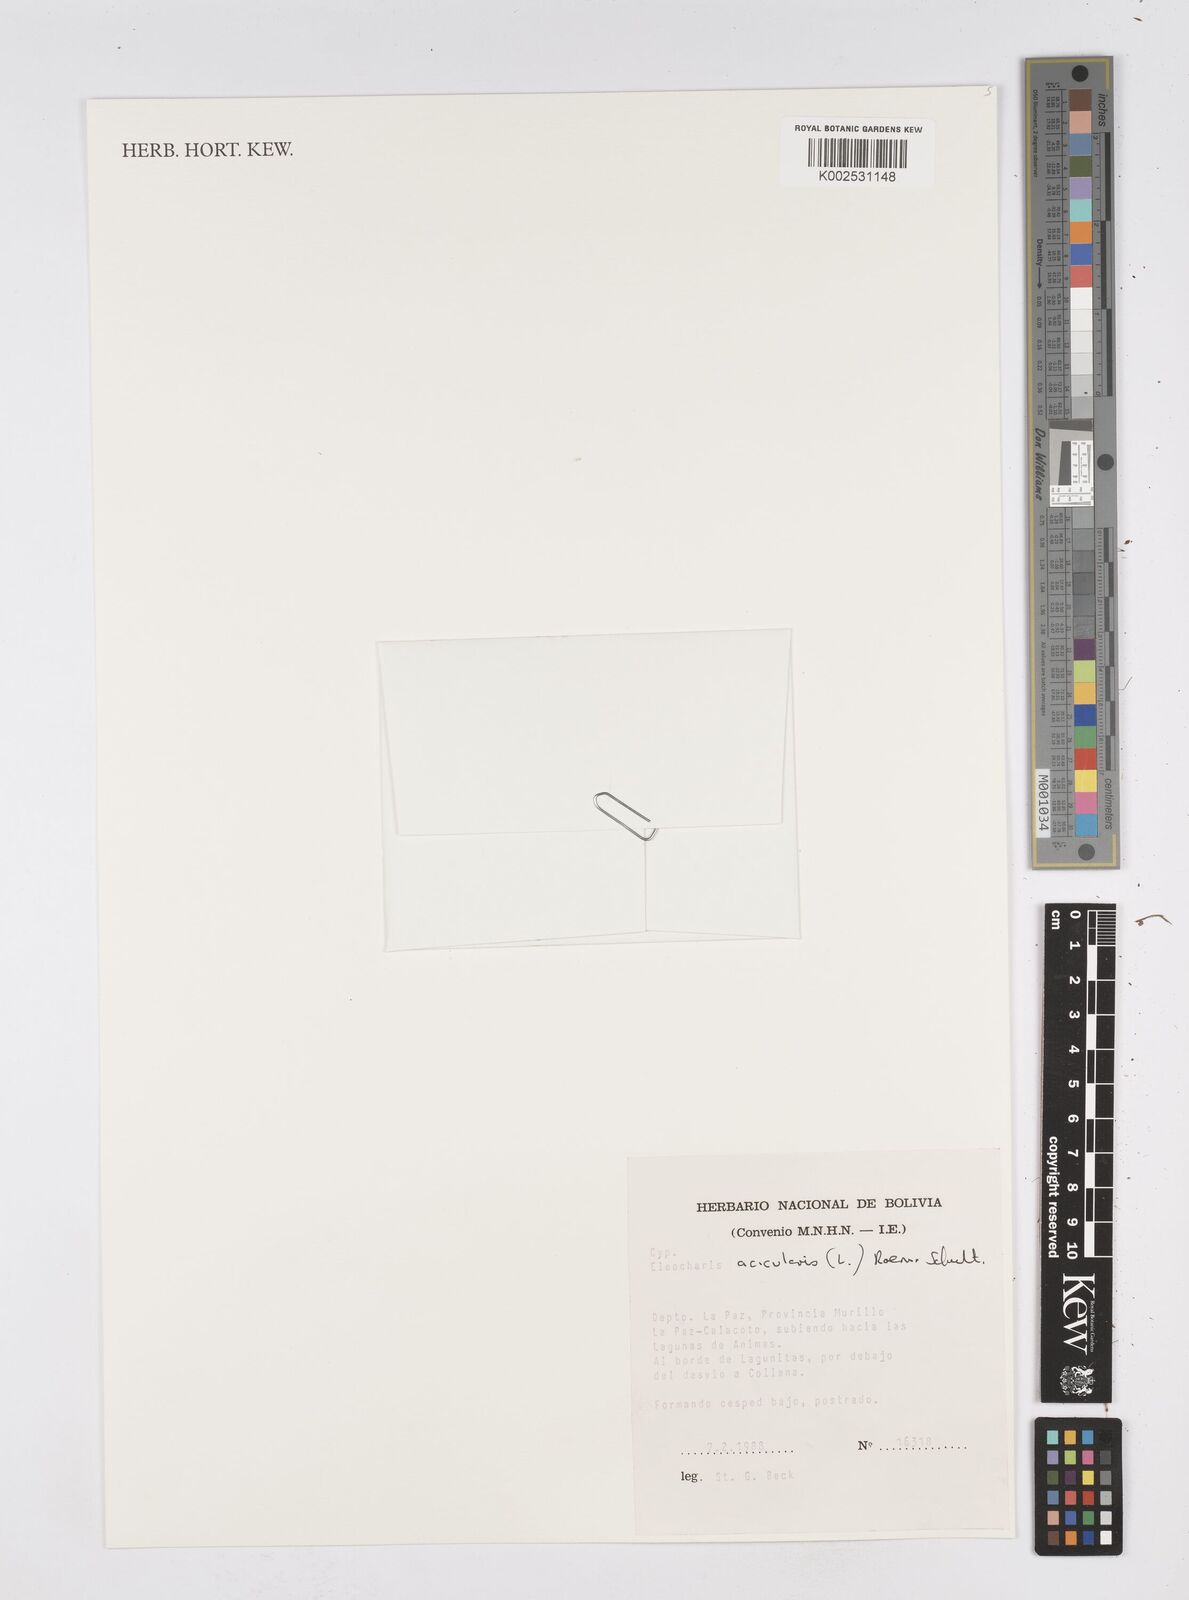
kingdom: Plantae
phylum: Tracheophyta
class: Liliopsida
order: Poales
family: Cyperaceae
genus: Eleocharis
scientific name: Eleocharis acicularis
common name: Needle spike-rush
